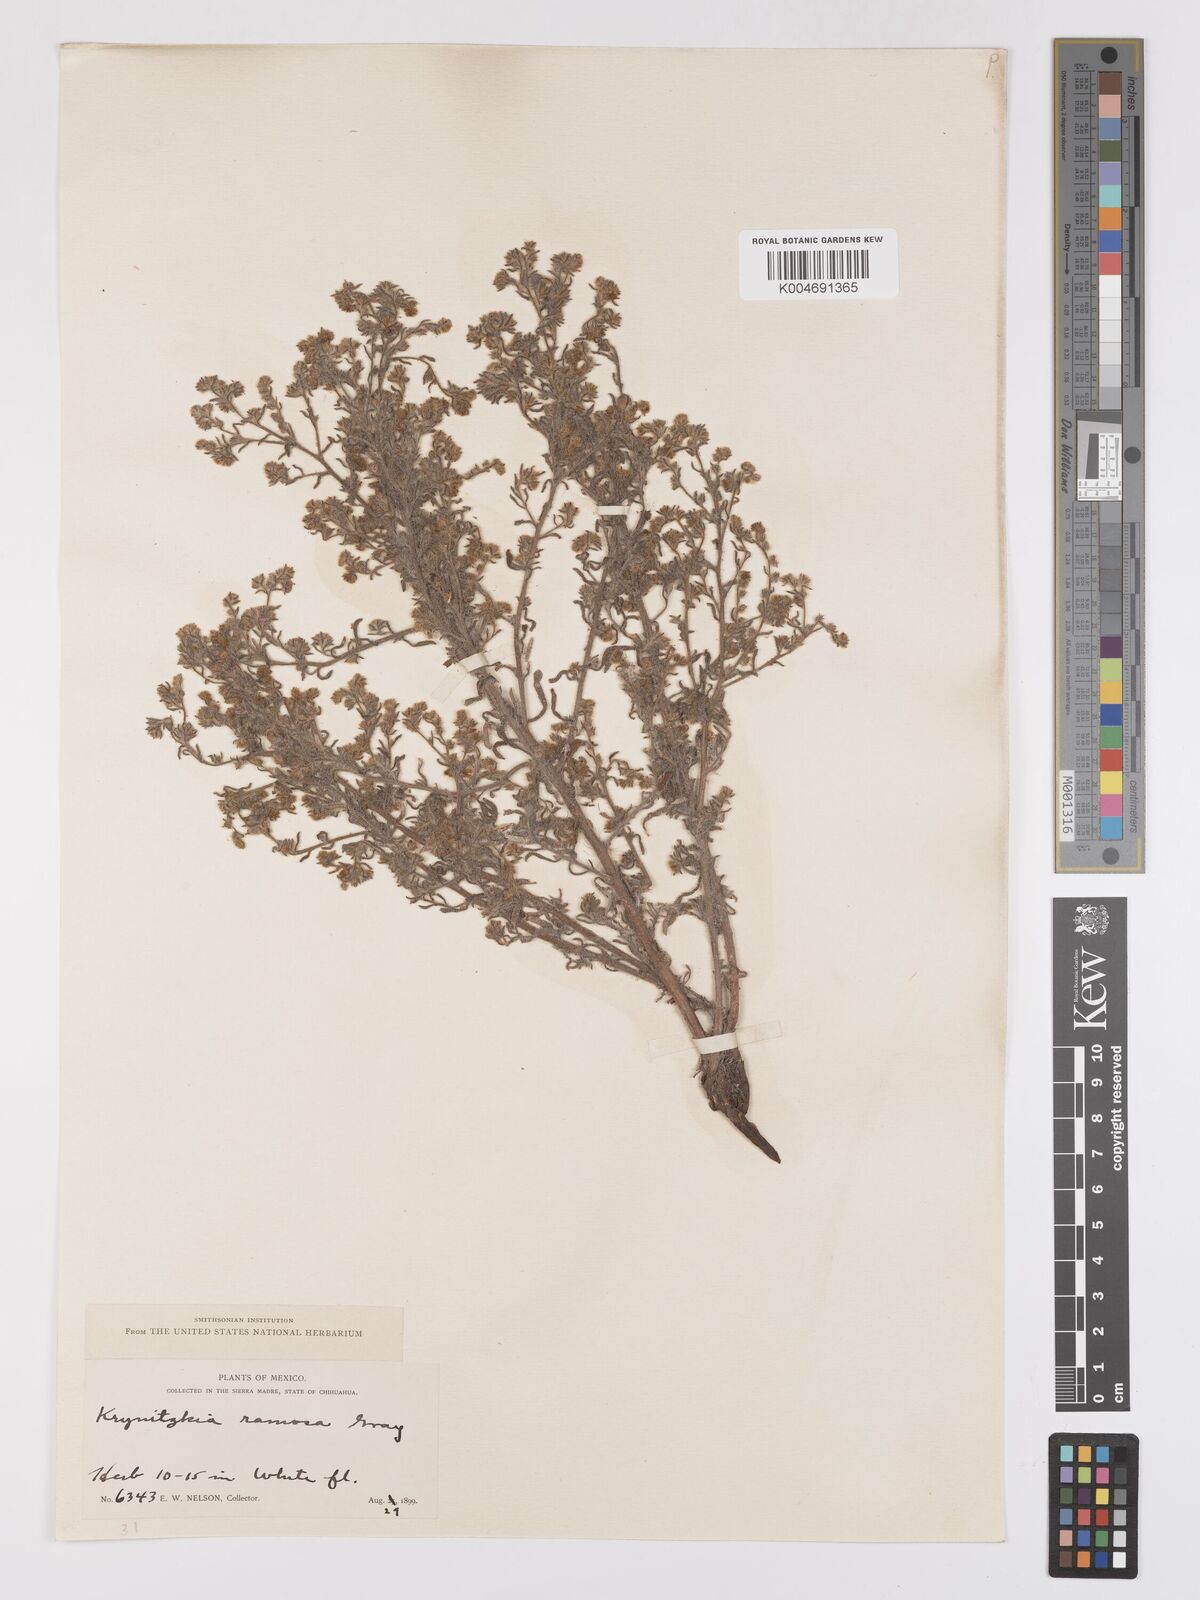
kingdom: Plantae
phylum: Tracheophyta
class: Magnoliopsida
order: Boraginales
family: Boraginaceae
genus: Johnstonella
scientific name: Johnstonella albida
